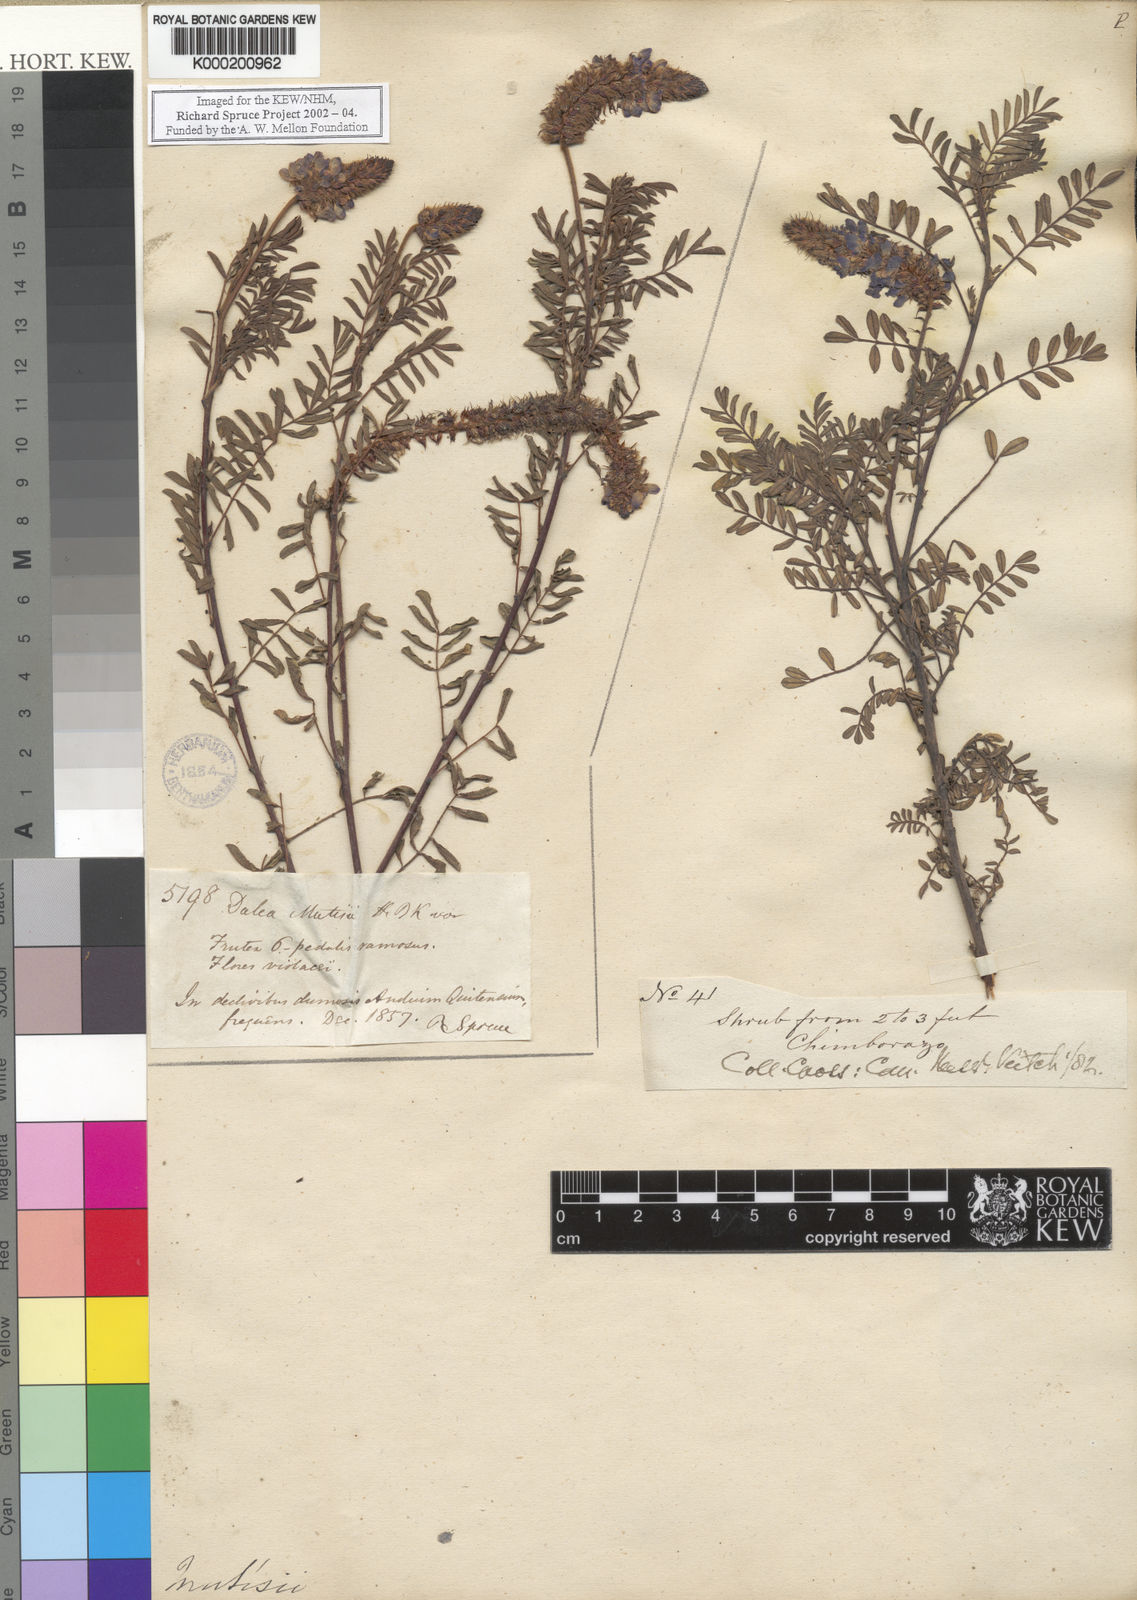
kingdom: Plantae
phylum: Tracheophyta
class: Magnoliopsida
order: Fabales
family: Fabaceae
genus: Dalea
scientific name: Dalea coerulea
